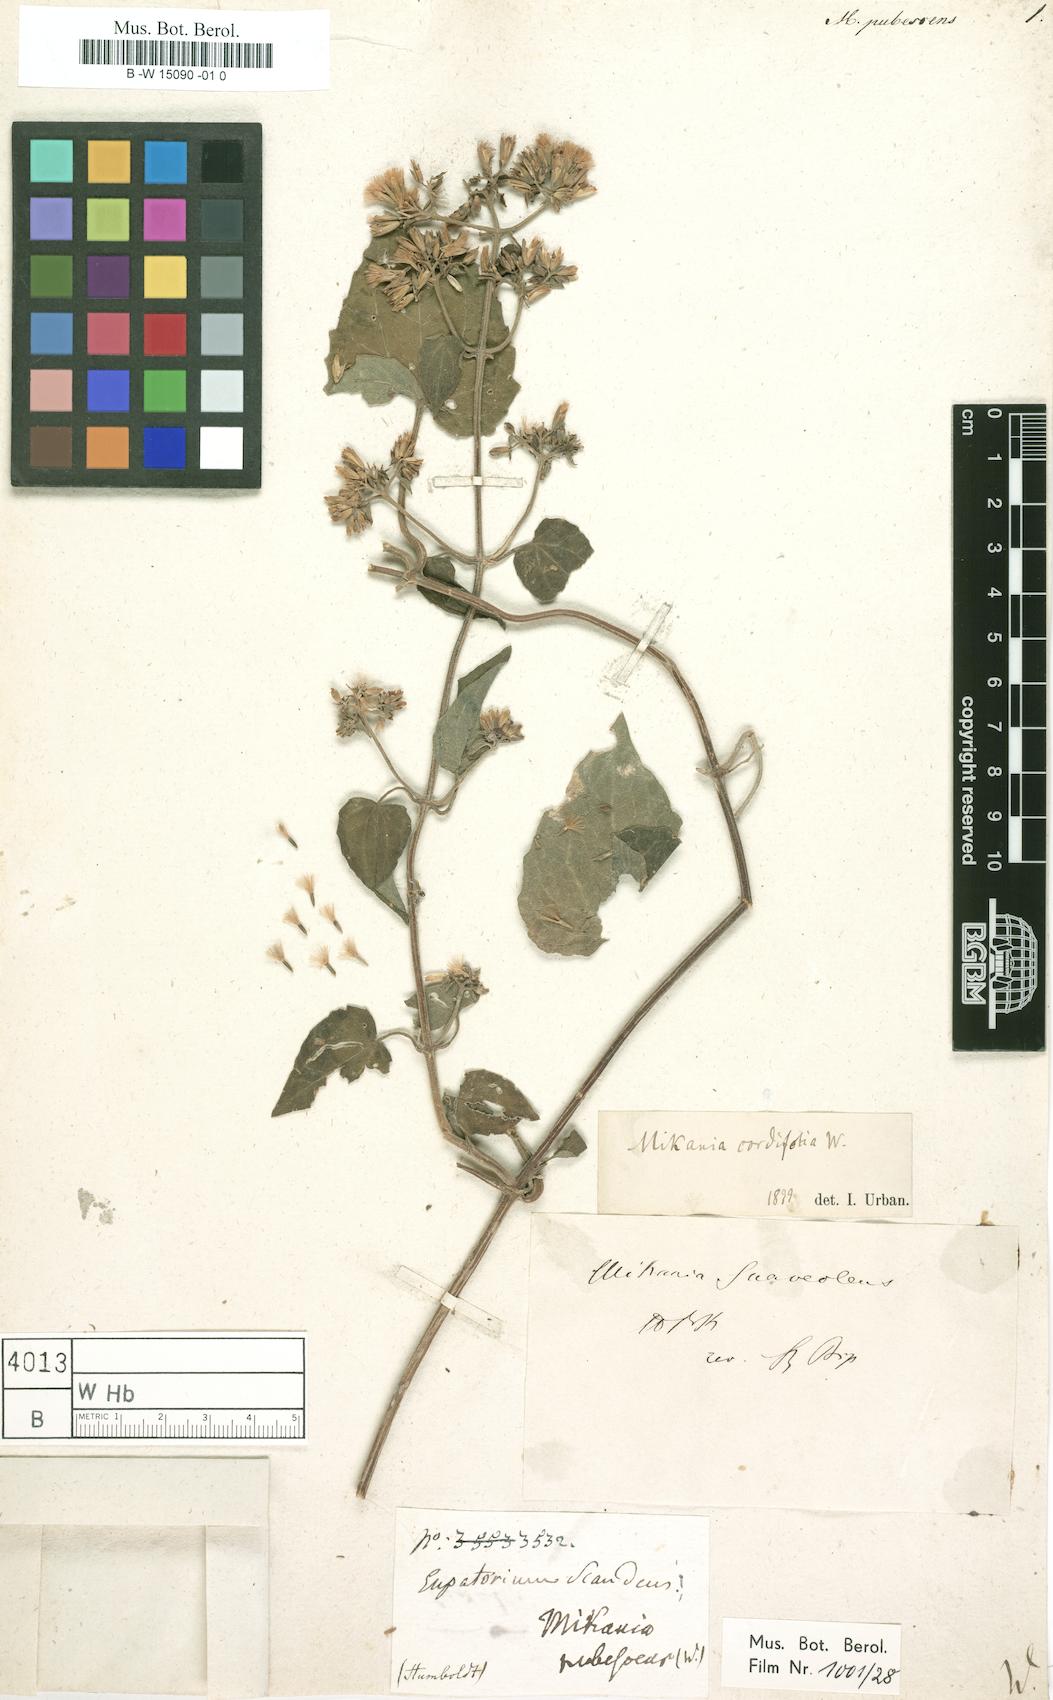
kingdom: Plantae
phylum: Tracheophyta
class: Magnoliopsida
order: Asterales
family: Asteraceae
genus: Mikania
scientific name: Mikania
